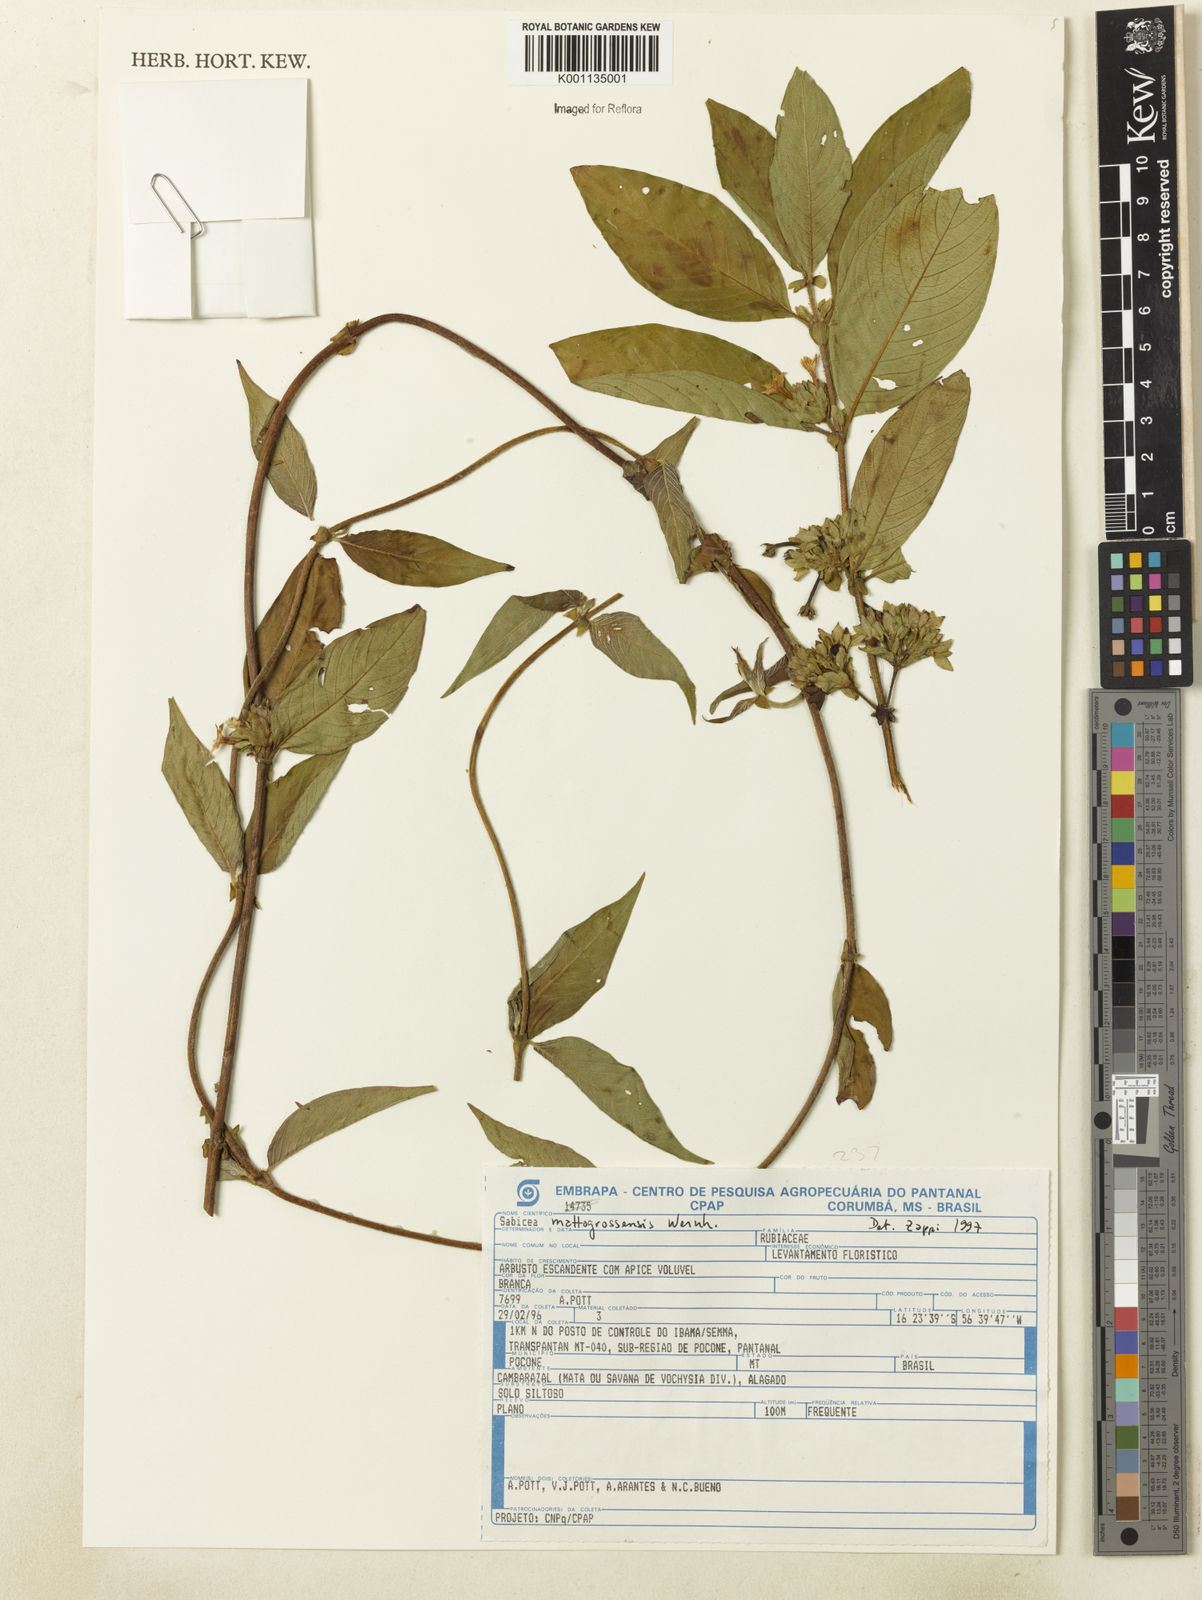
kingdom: Plantae
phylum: Tracheophyta
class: Magnoliopsida
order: Gentianales
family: Rubiaceae
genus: Sabicea
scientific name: Sabicea mattogrossensis
